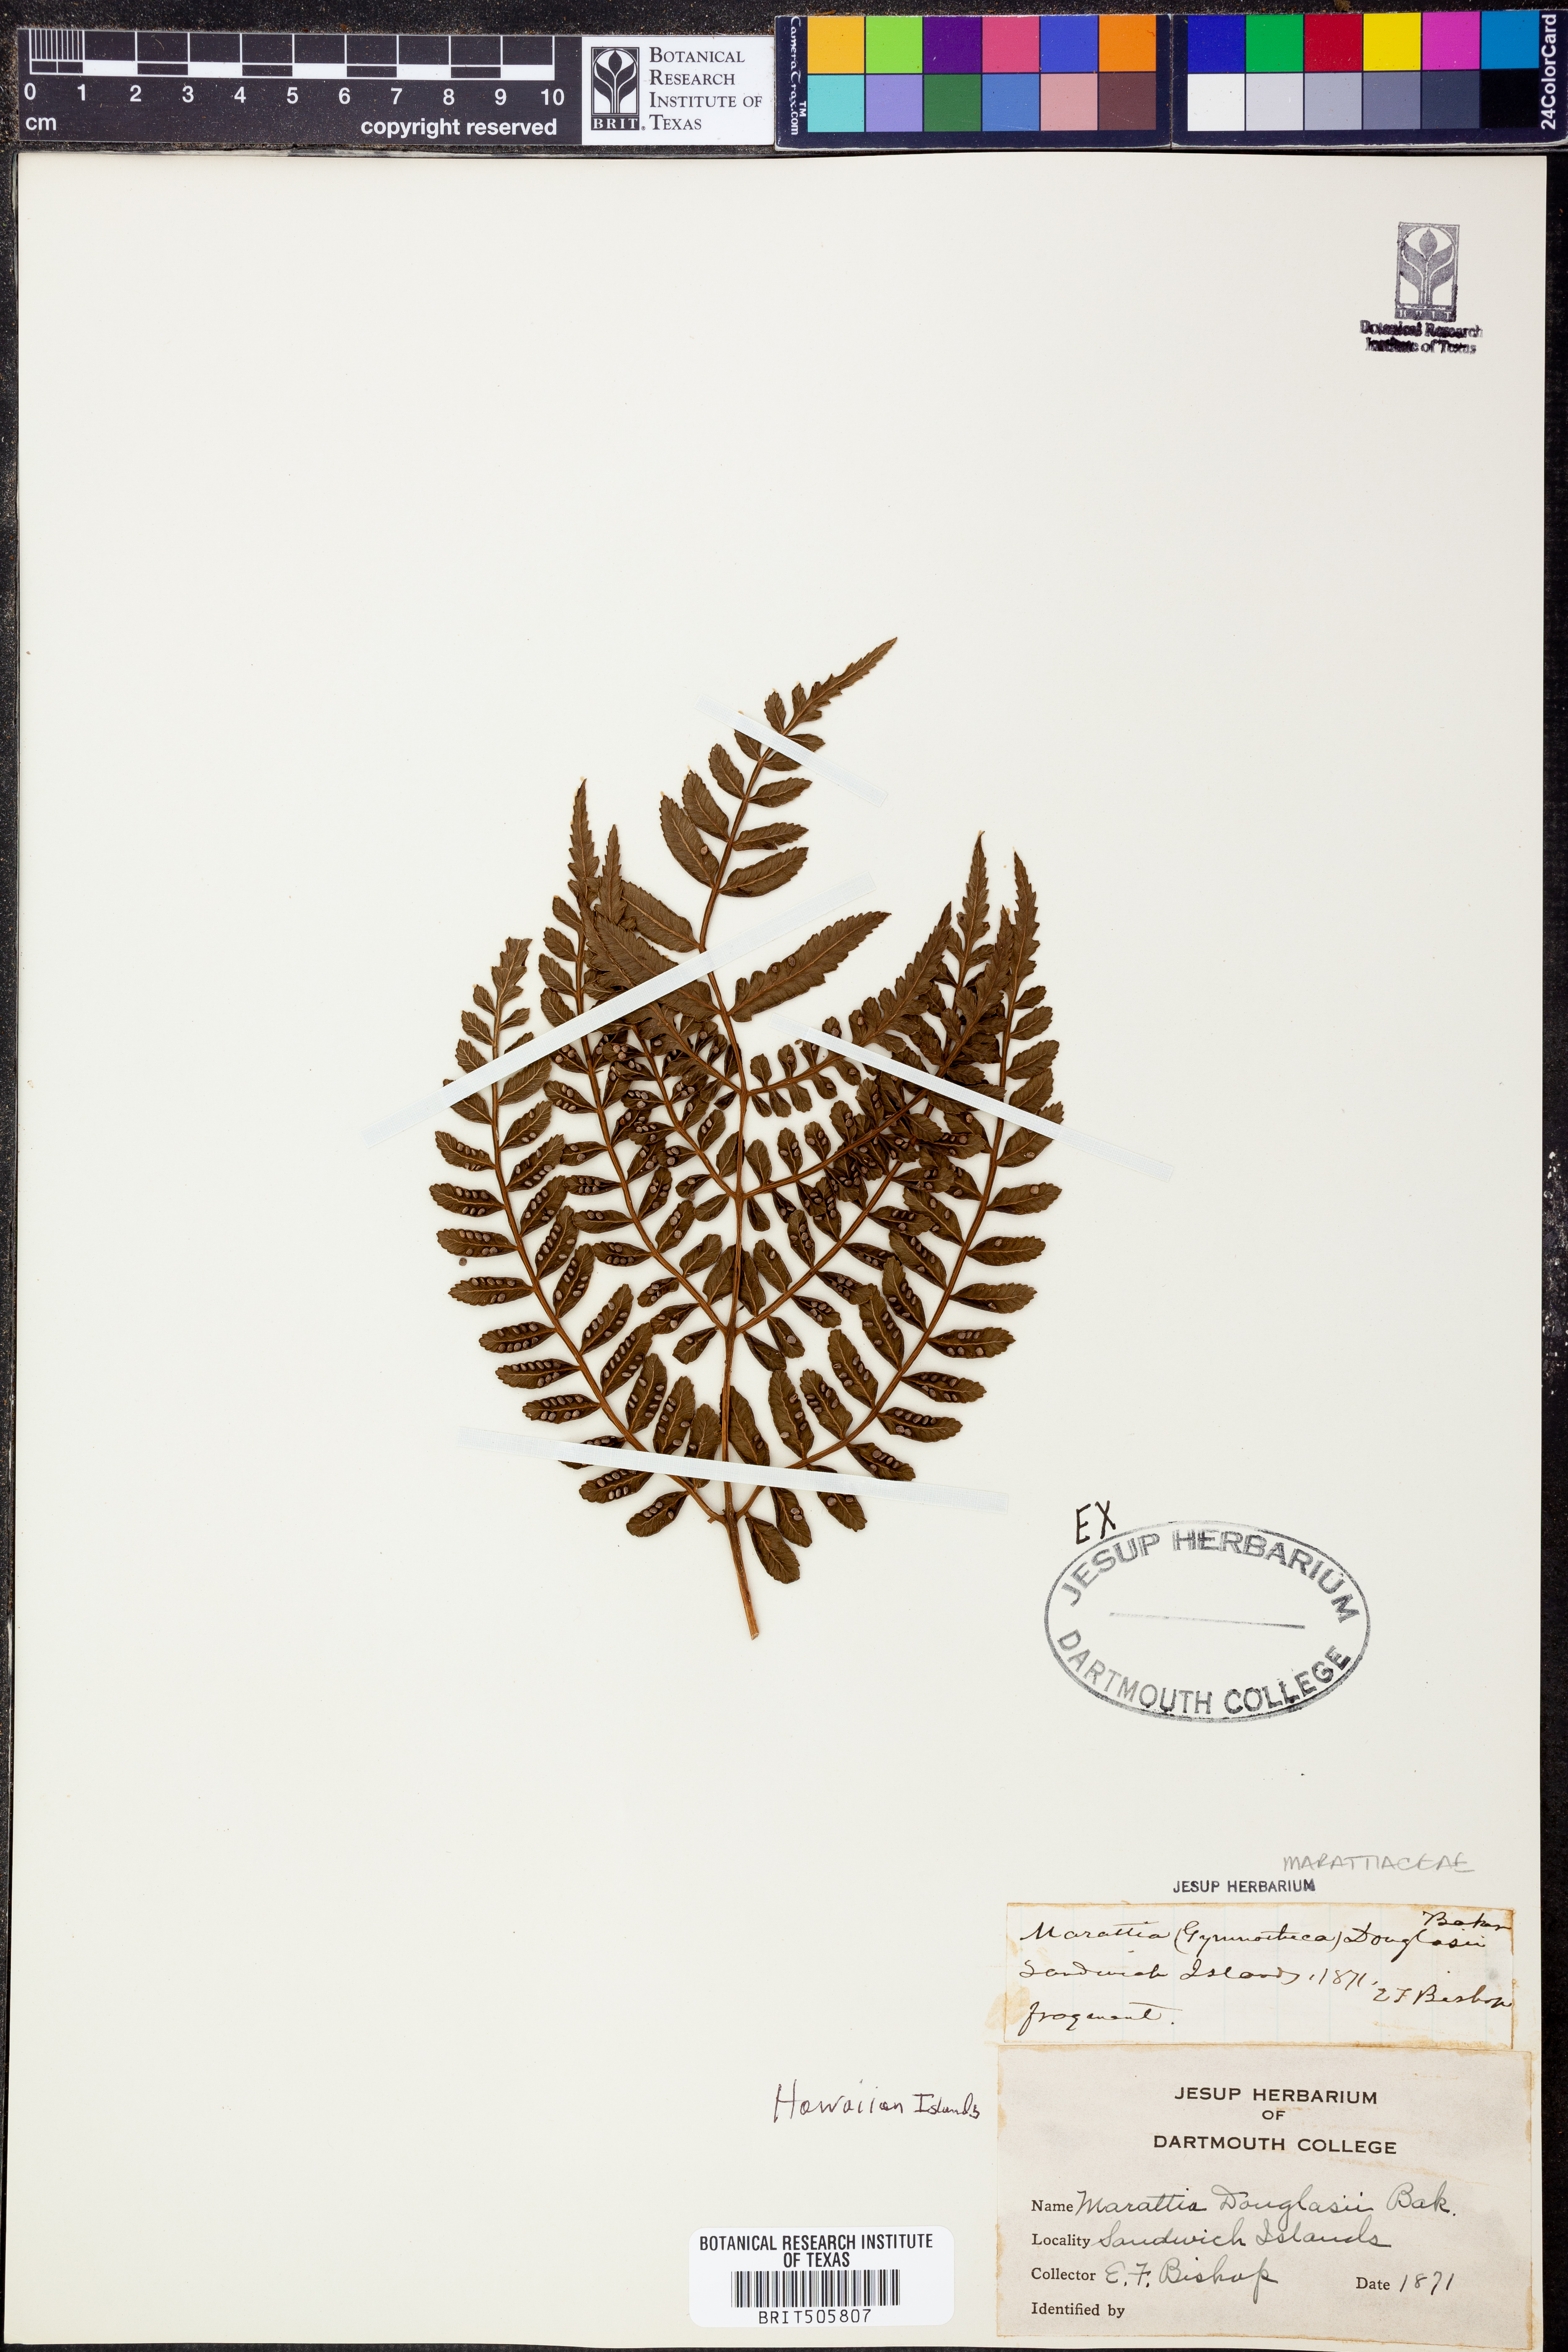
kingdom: Plantae
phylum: Tracheophyta
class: Polypodiopsida
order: Marattiales
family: Marattiaceae
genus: Marattia
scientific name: Marattia douglasii
